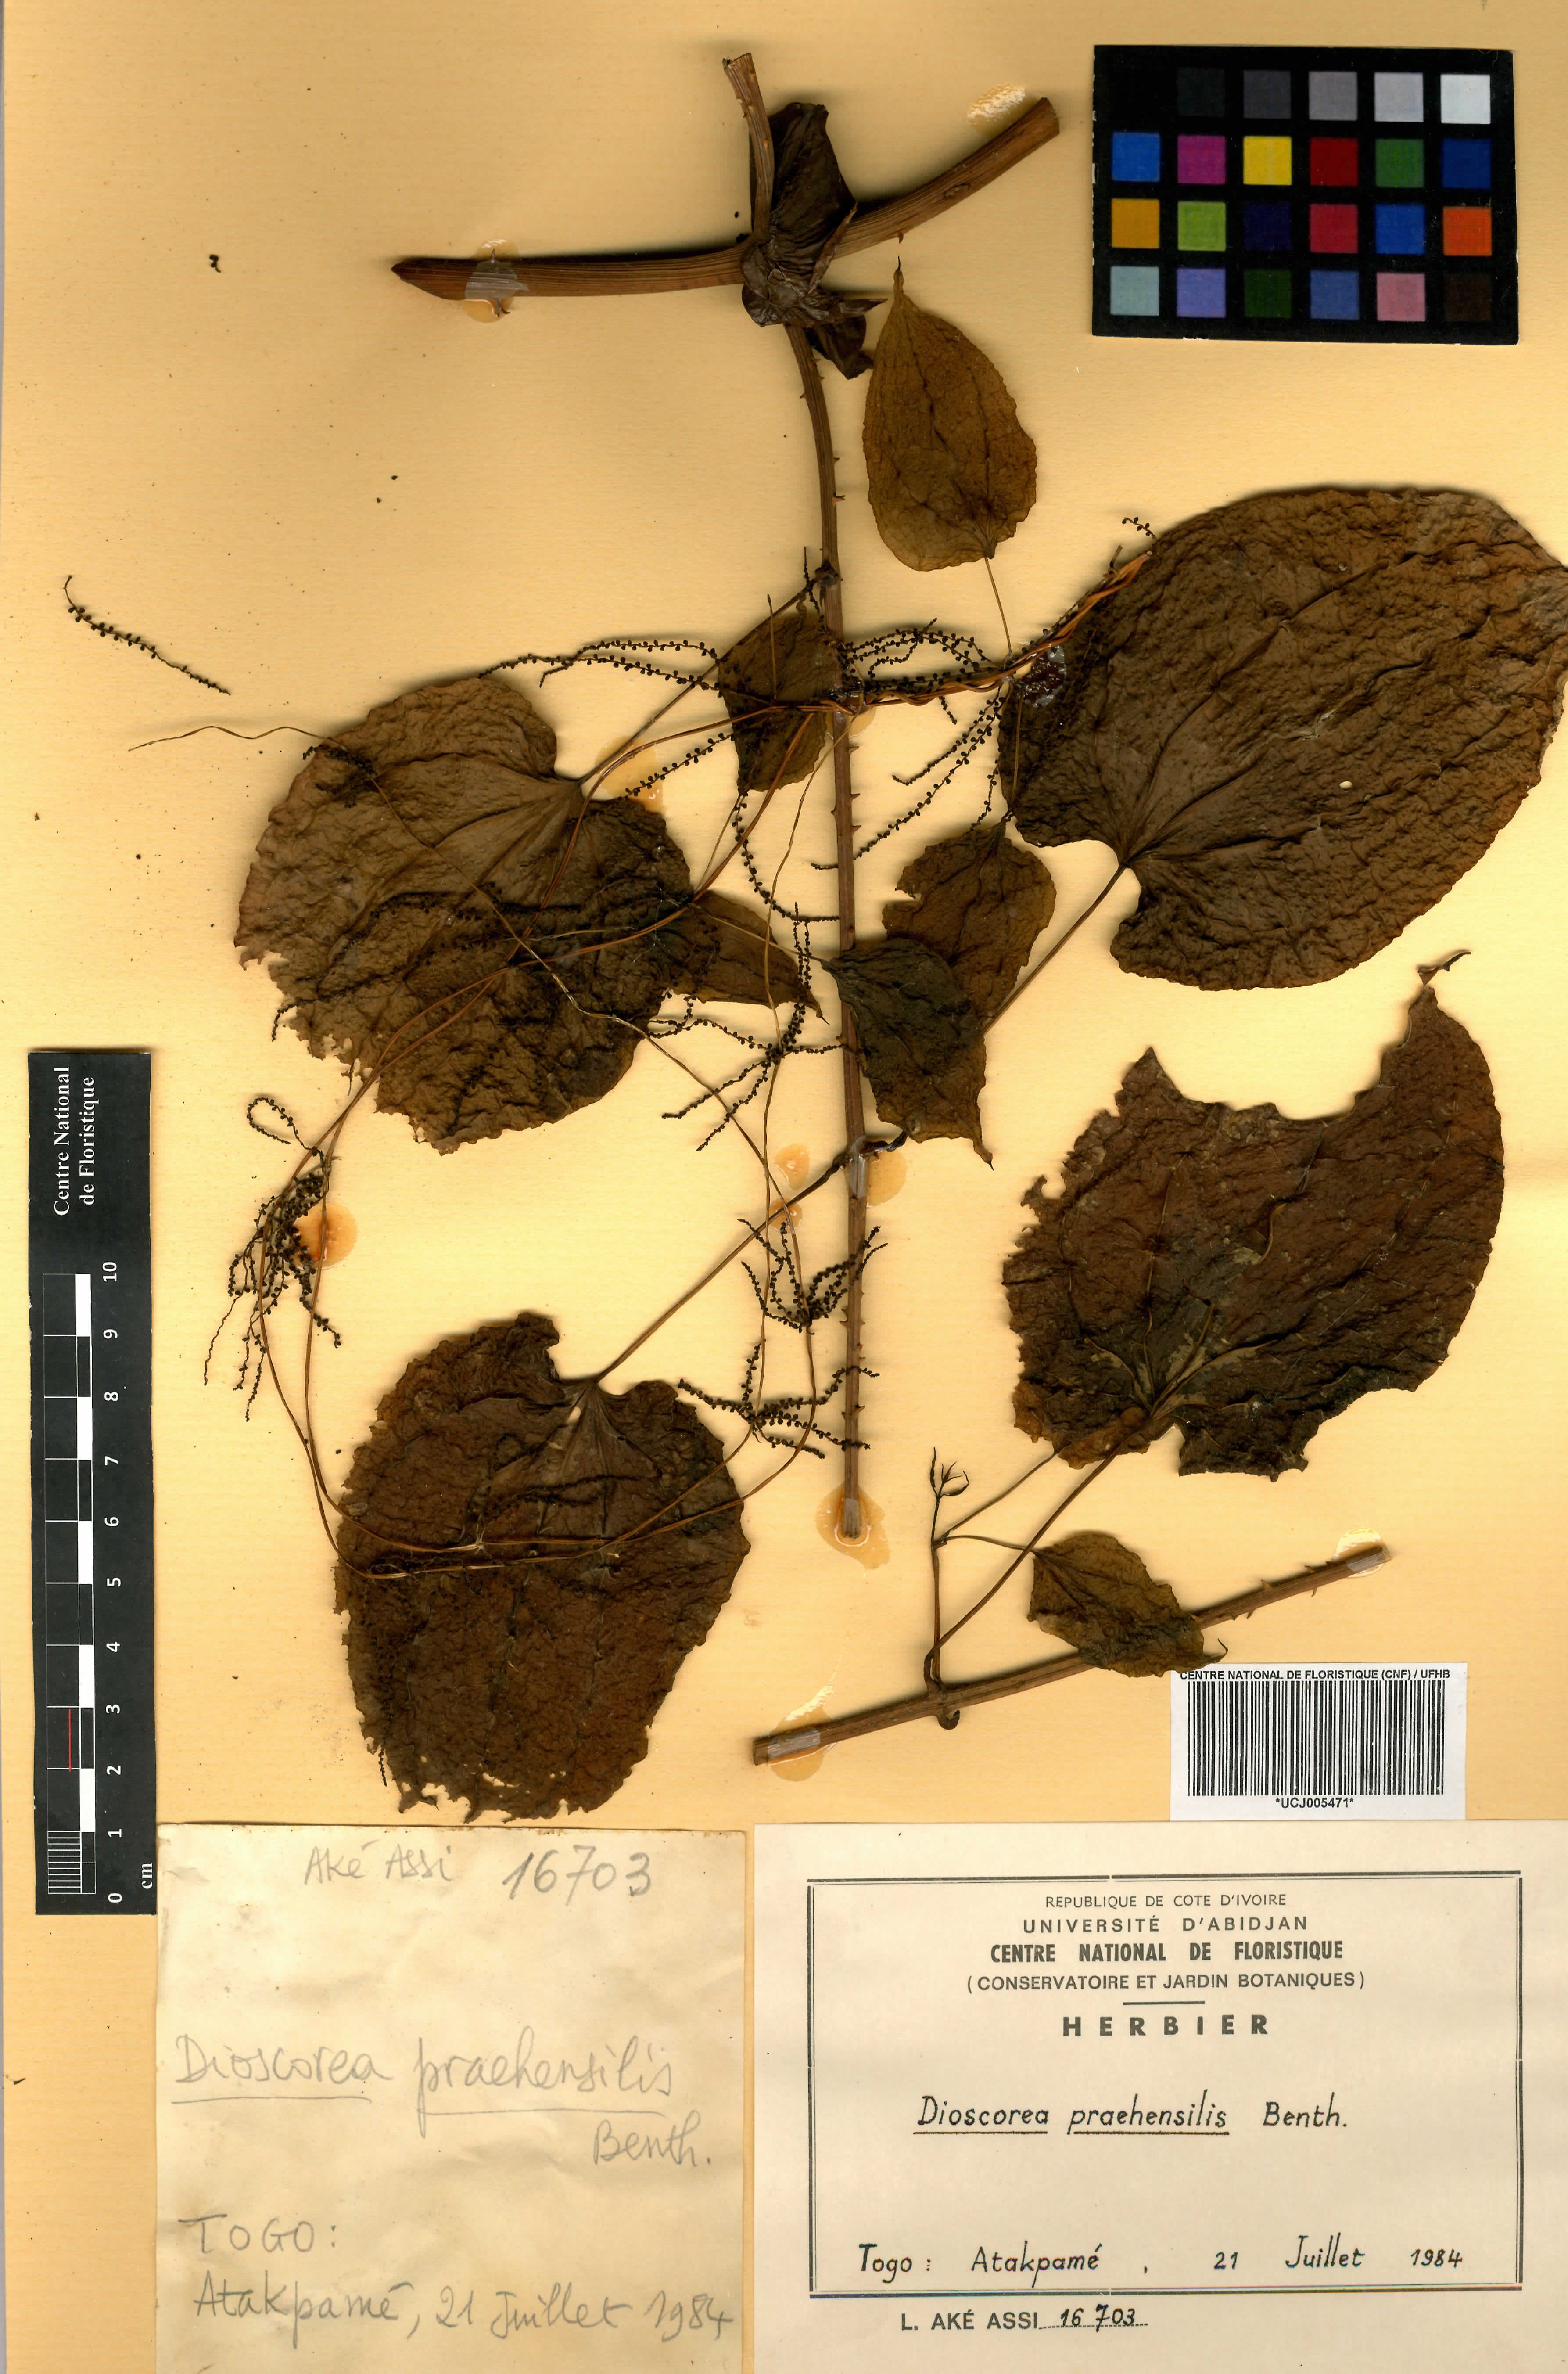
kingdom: Plantae
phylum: Tracheophyta
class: Liliopsida
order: Dioscoreales
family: Dioscoreaceae
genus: Dioscorea
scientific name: Dioscorea praehensilis
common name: Bush yam
